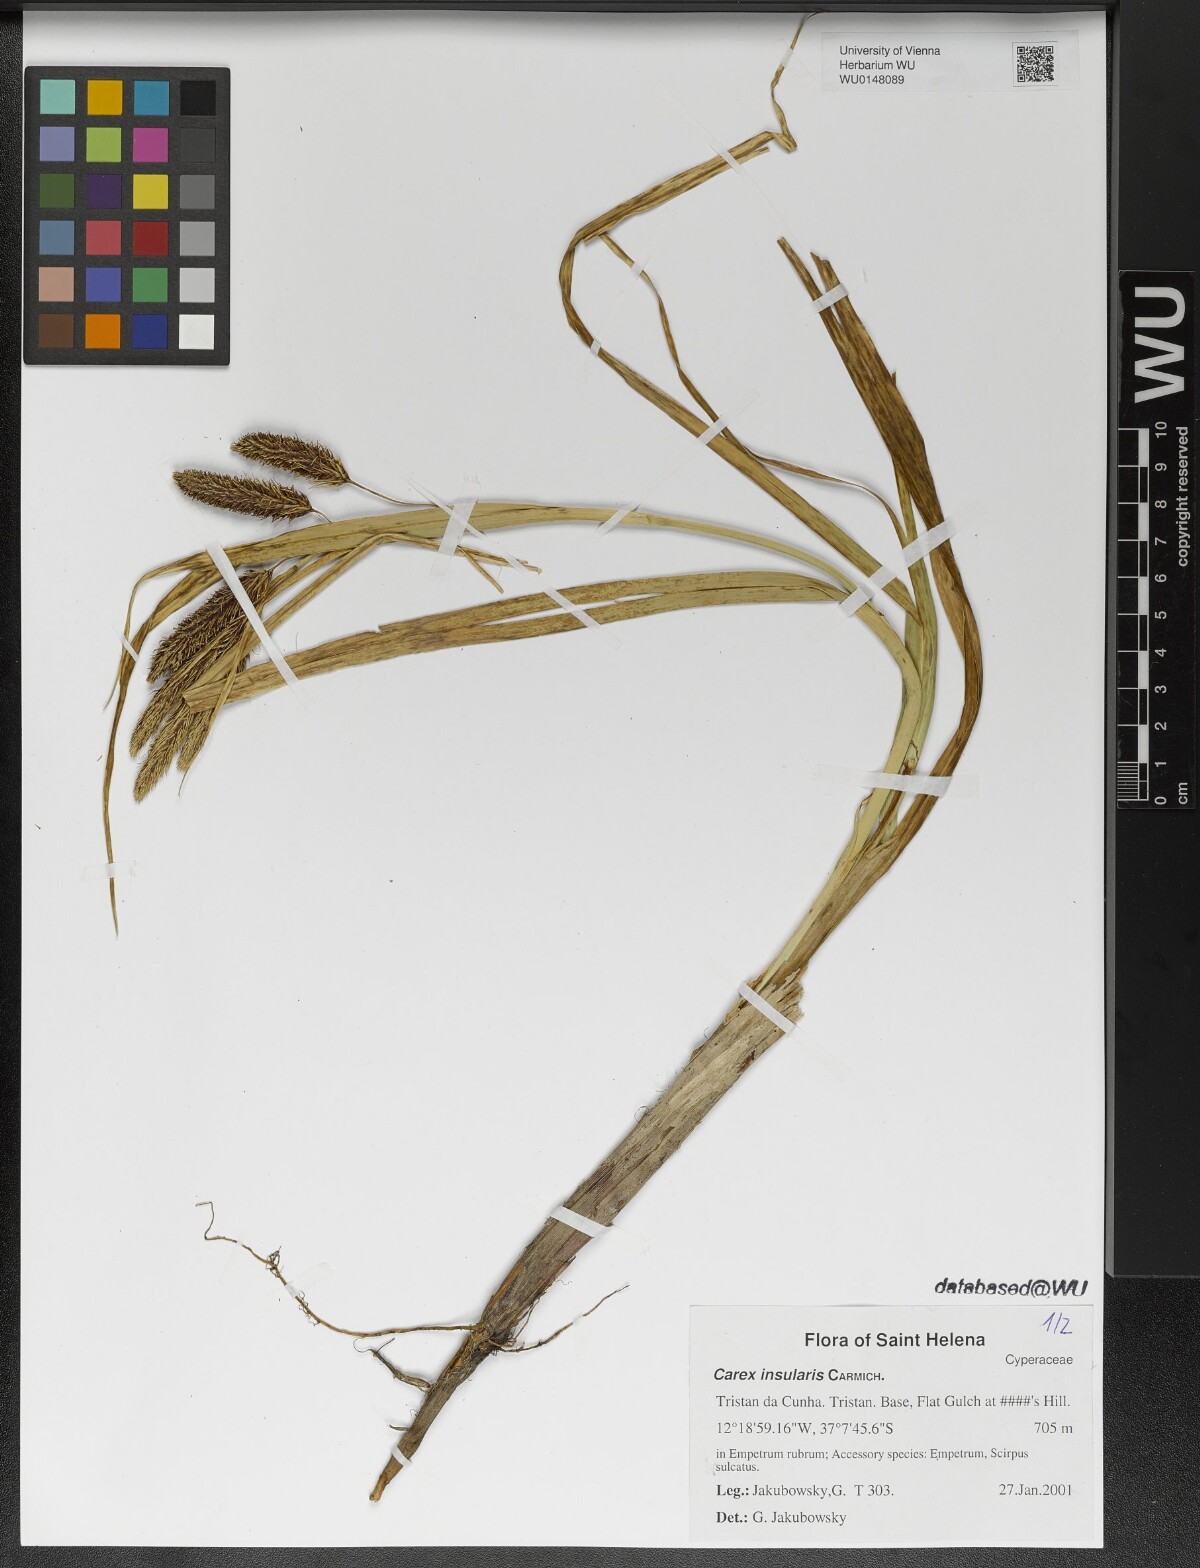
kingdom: Plantae
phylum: Tracheophyta
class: Liliopsida
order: Poales
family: Cyperaceae
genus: Carex
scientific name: Carex insularis
